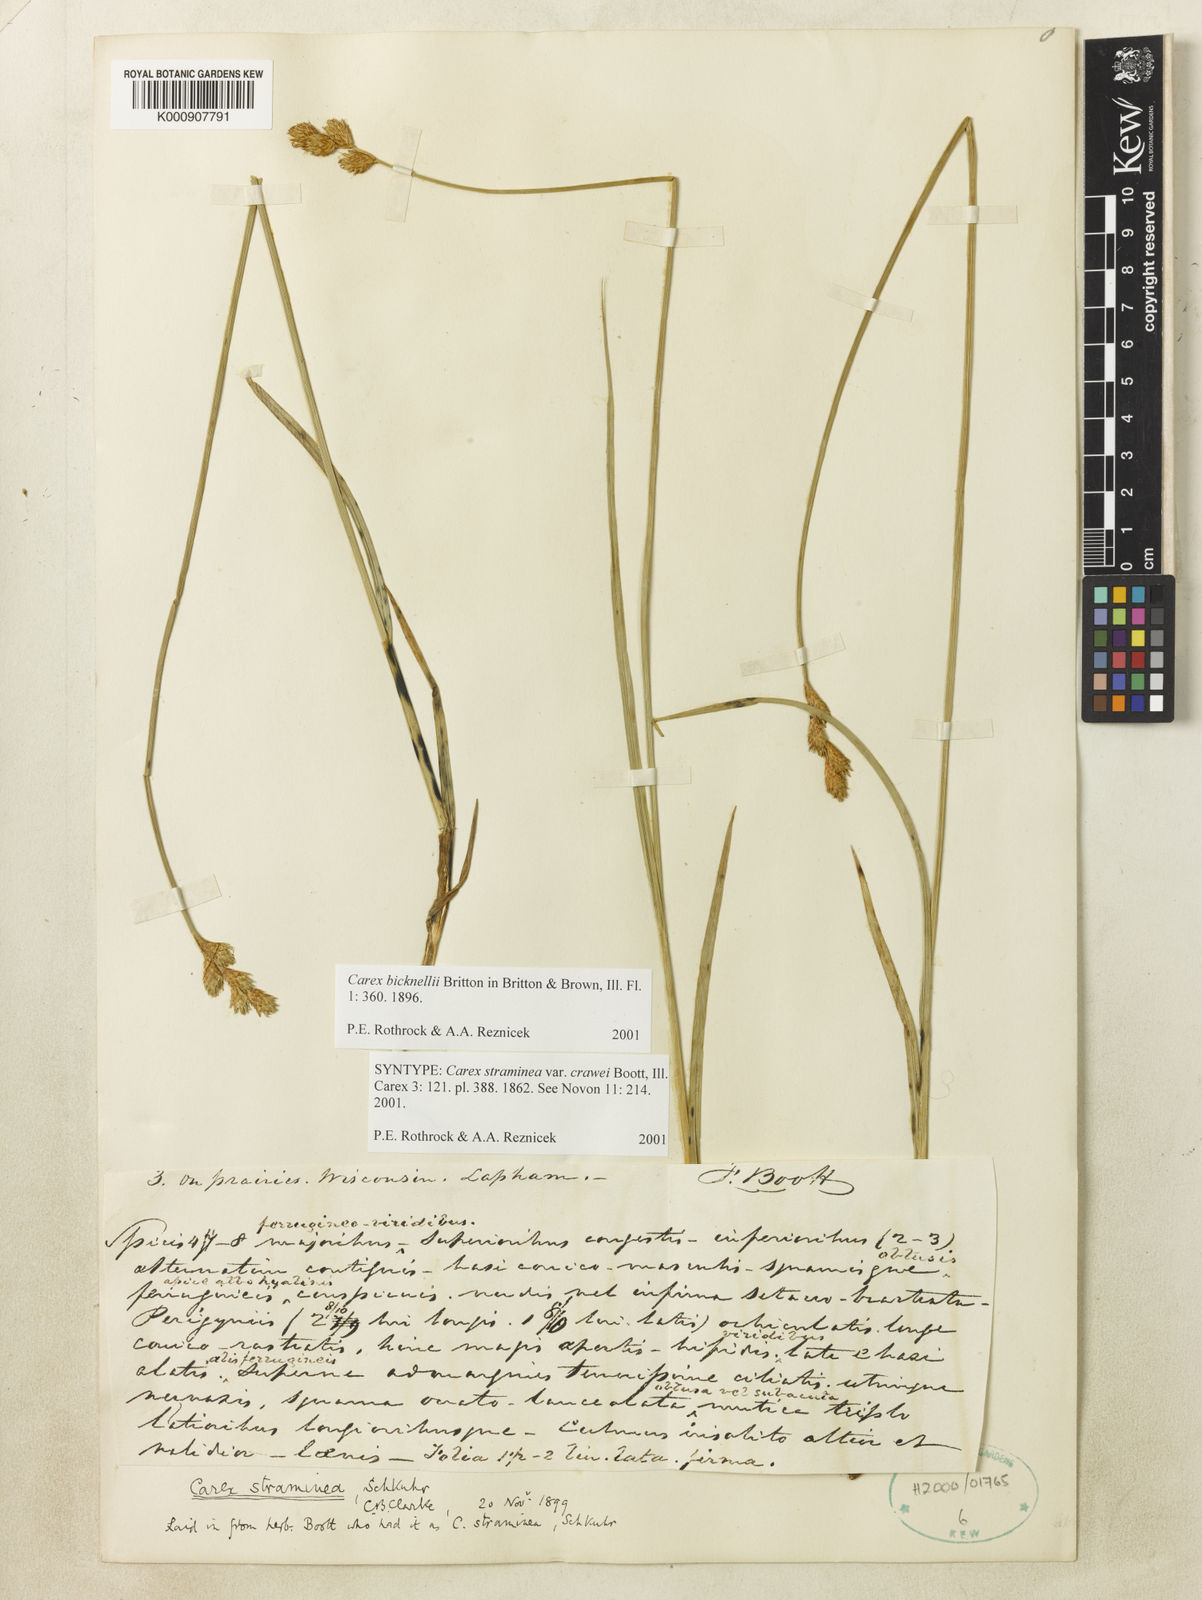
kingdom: Plantae
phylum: Tracheophyta
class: Liliopsida
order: Poales
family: Cyperaceae
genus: Carex
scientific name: Carex brevior
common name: Brevior sedge
